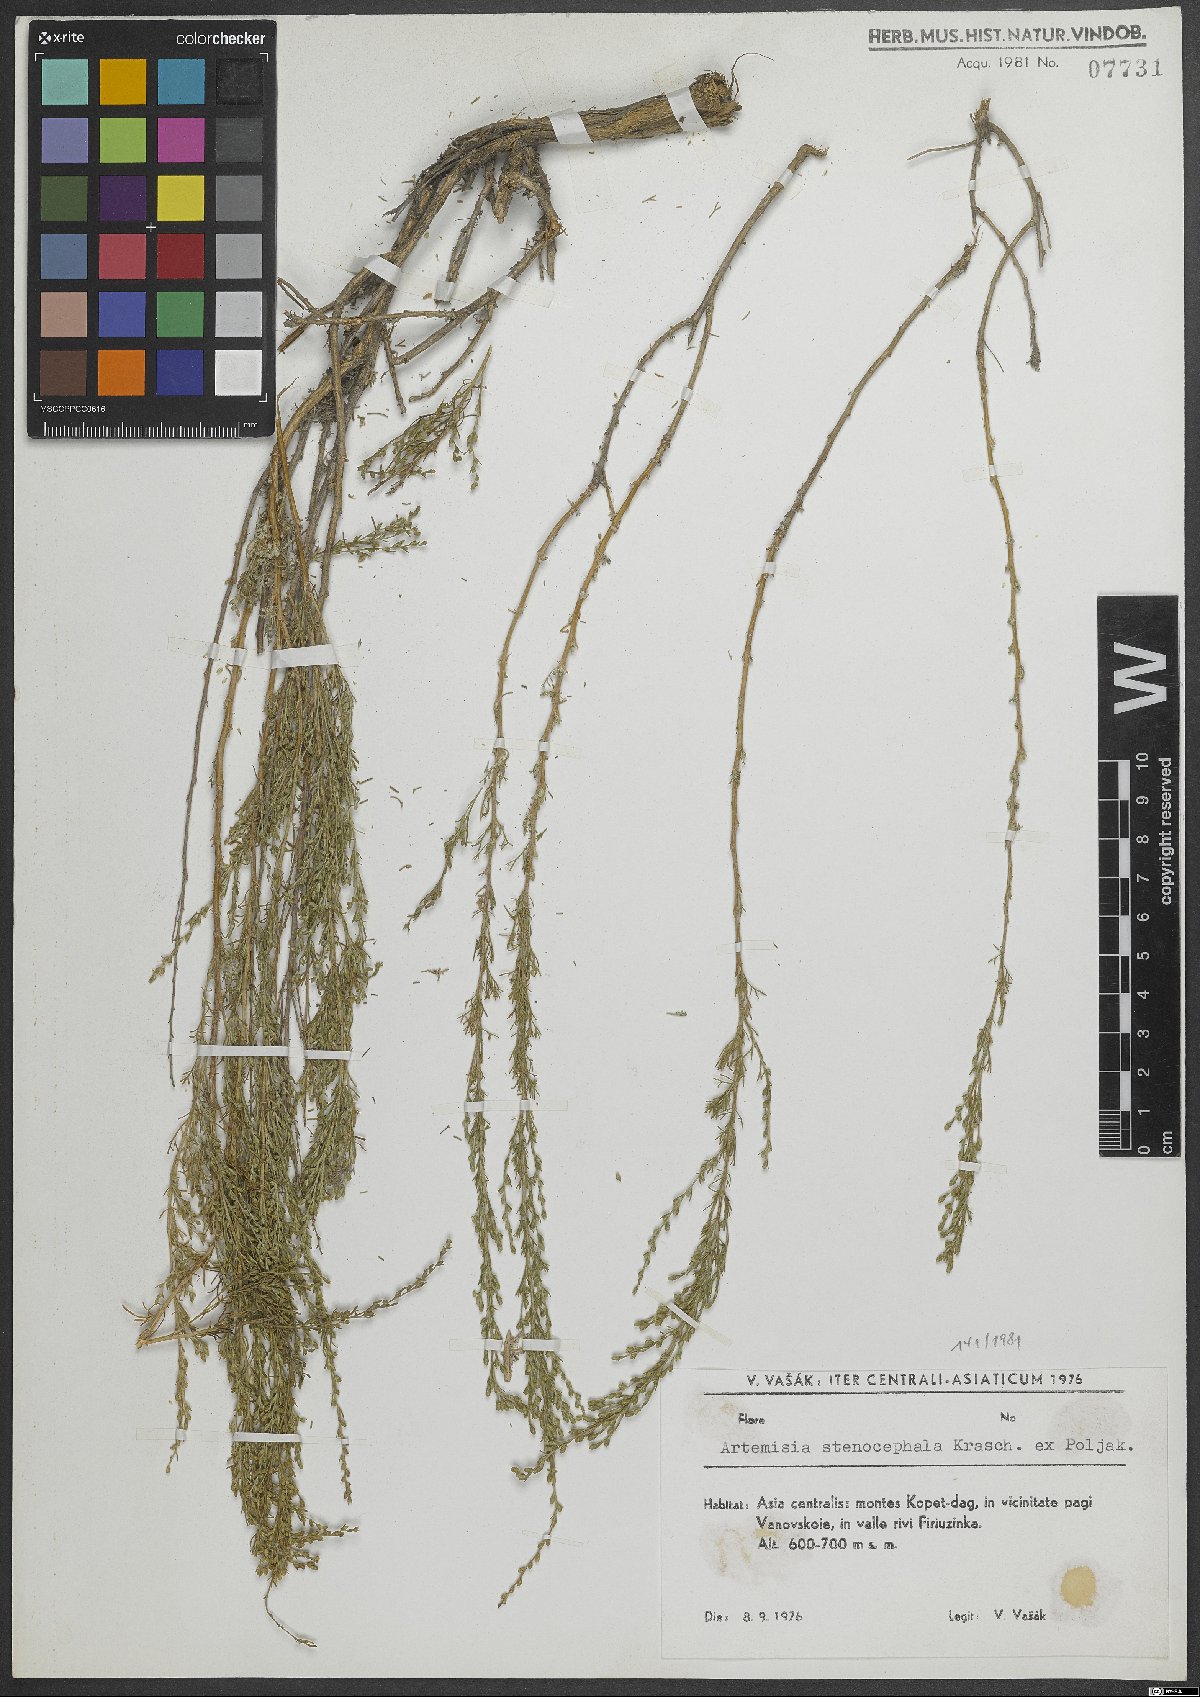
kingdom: Plantae
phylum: Tracheophyta
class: Magnoliopsida
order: Asterales
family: Asteraceae
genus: Artemisia
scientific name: Artemisia stenocephala
